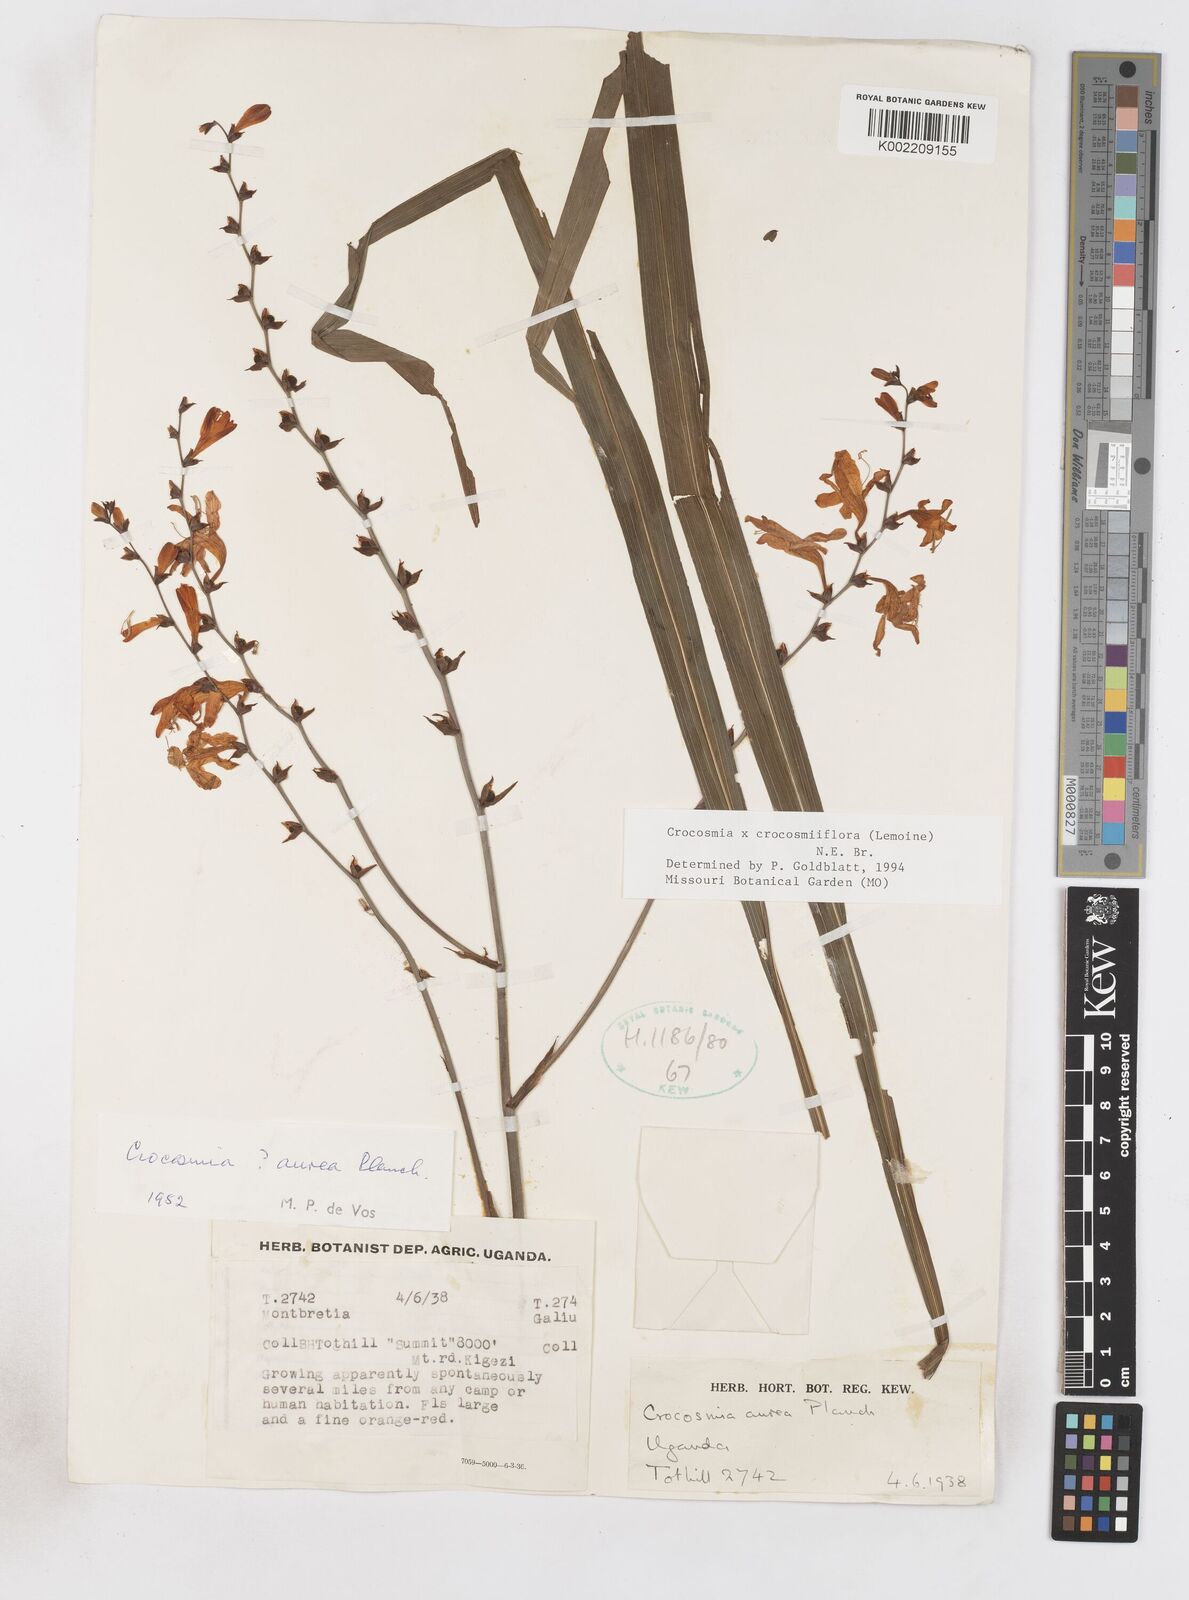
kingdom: Plantae
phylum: Tracheophyta
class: Liliopsida
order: Asparagales
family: Iridaceae
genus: Crocosmia
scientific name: Crocosmia aurea
